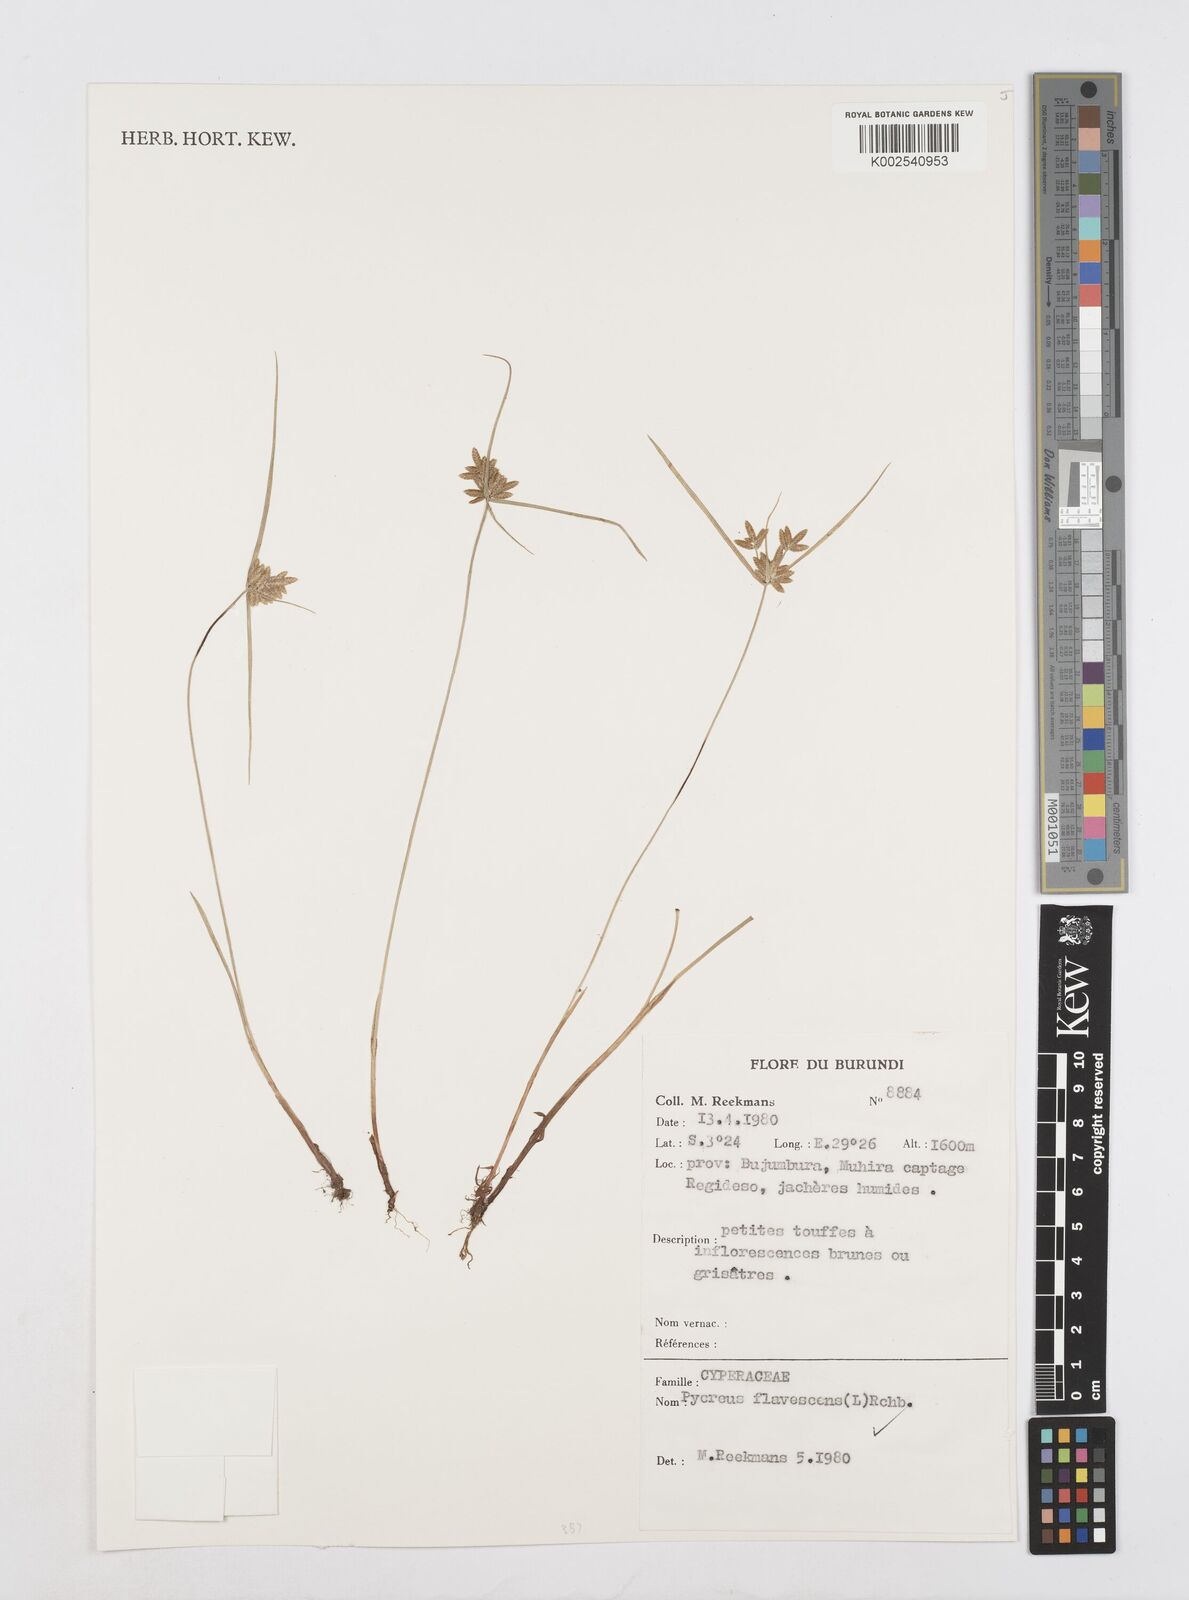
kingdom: Plantae
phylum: Tracheophyta
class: Liliopsida
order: Poales
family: Cyperaceae
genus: Cyperus
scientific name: Cyperus flavescens
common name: Yellow galingale
